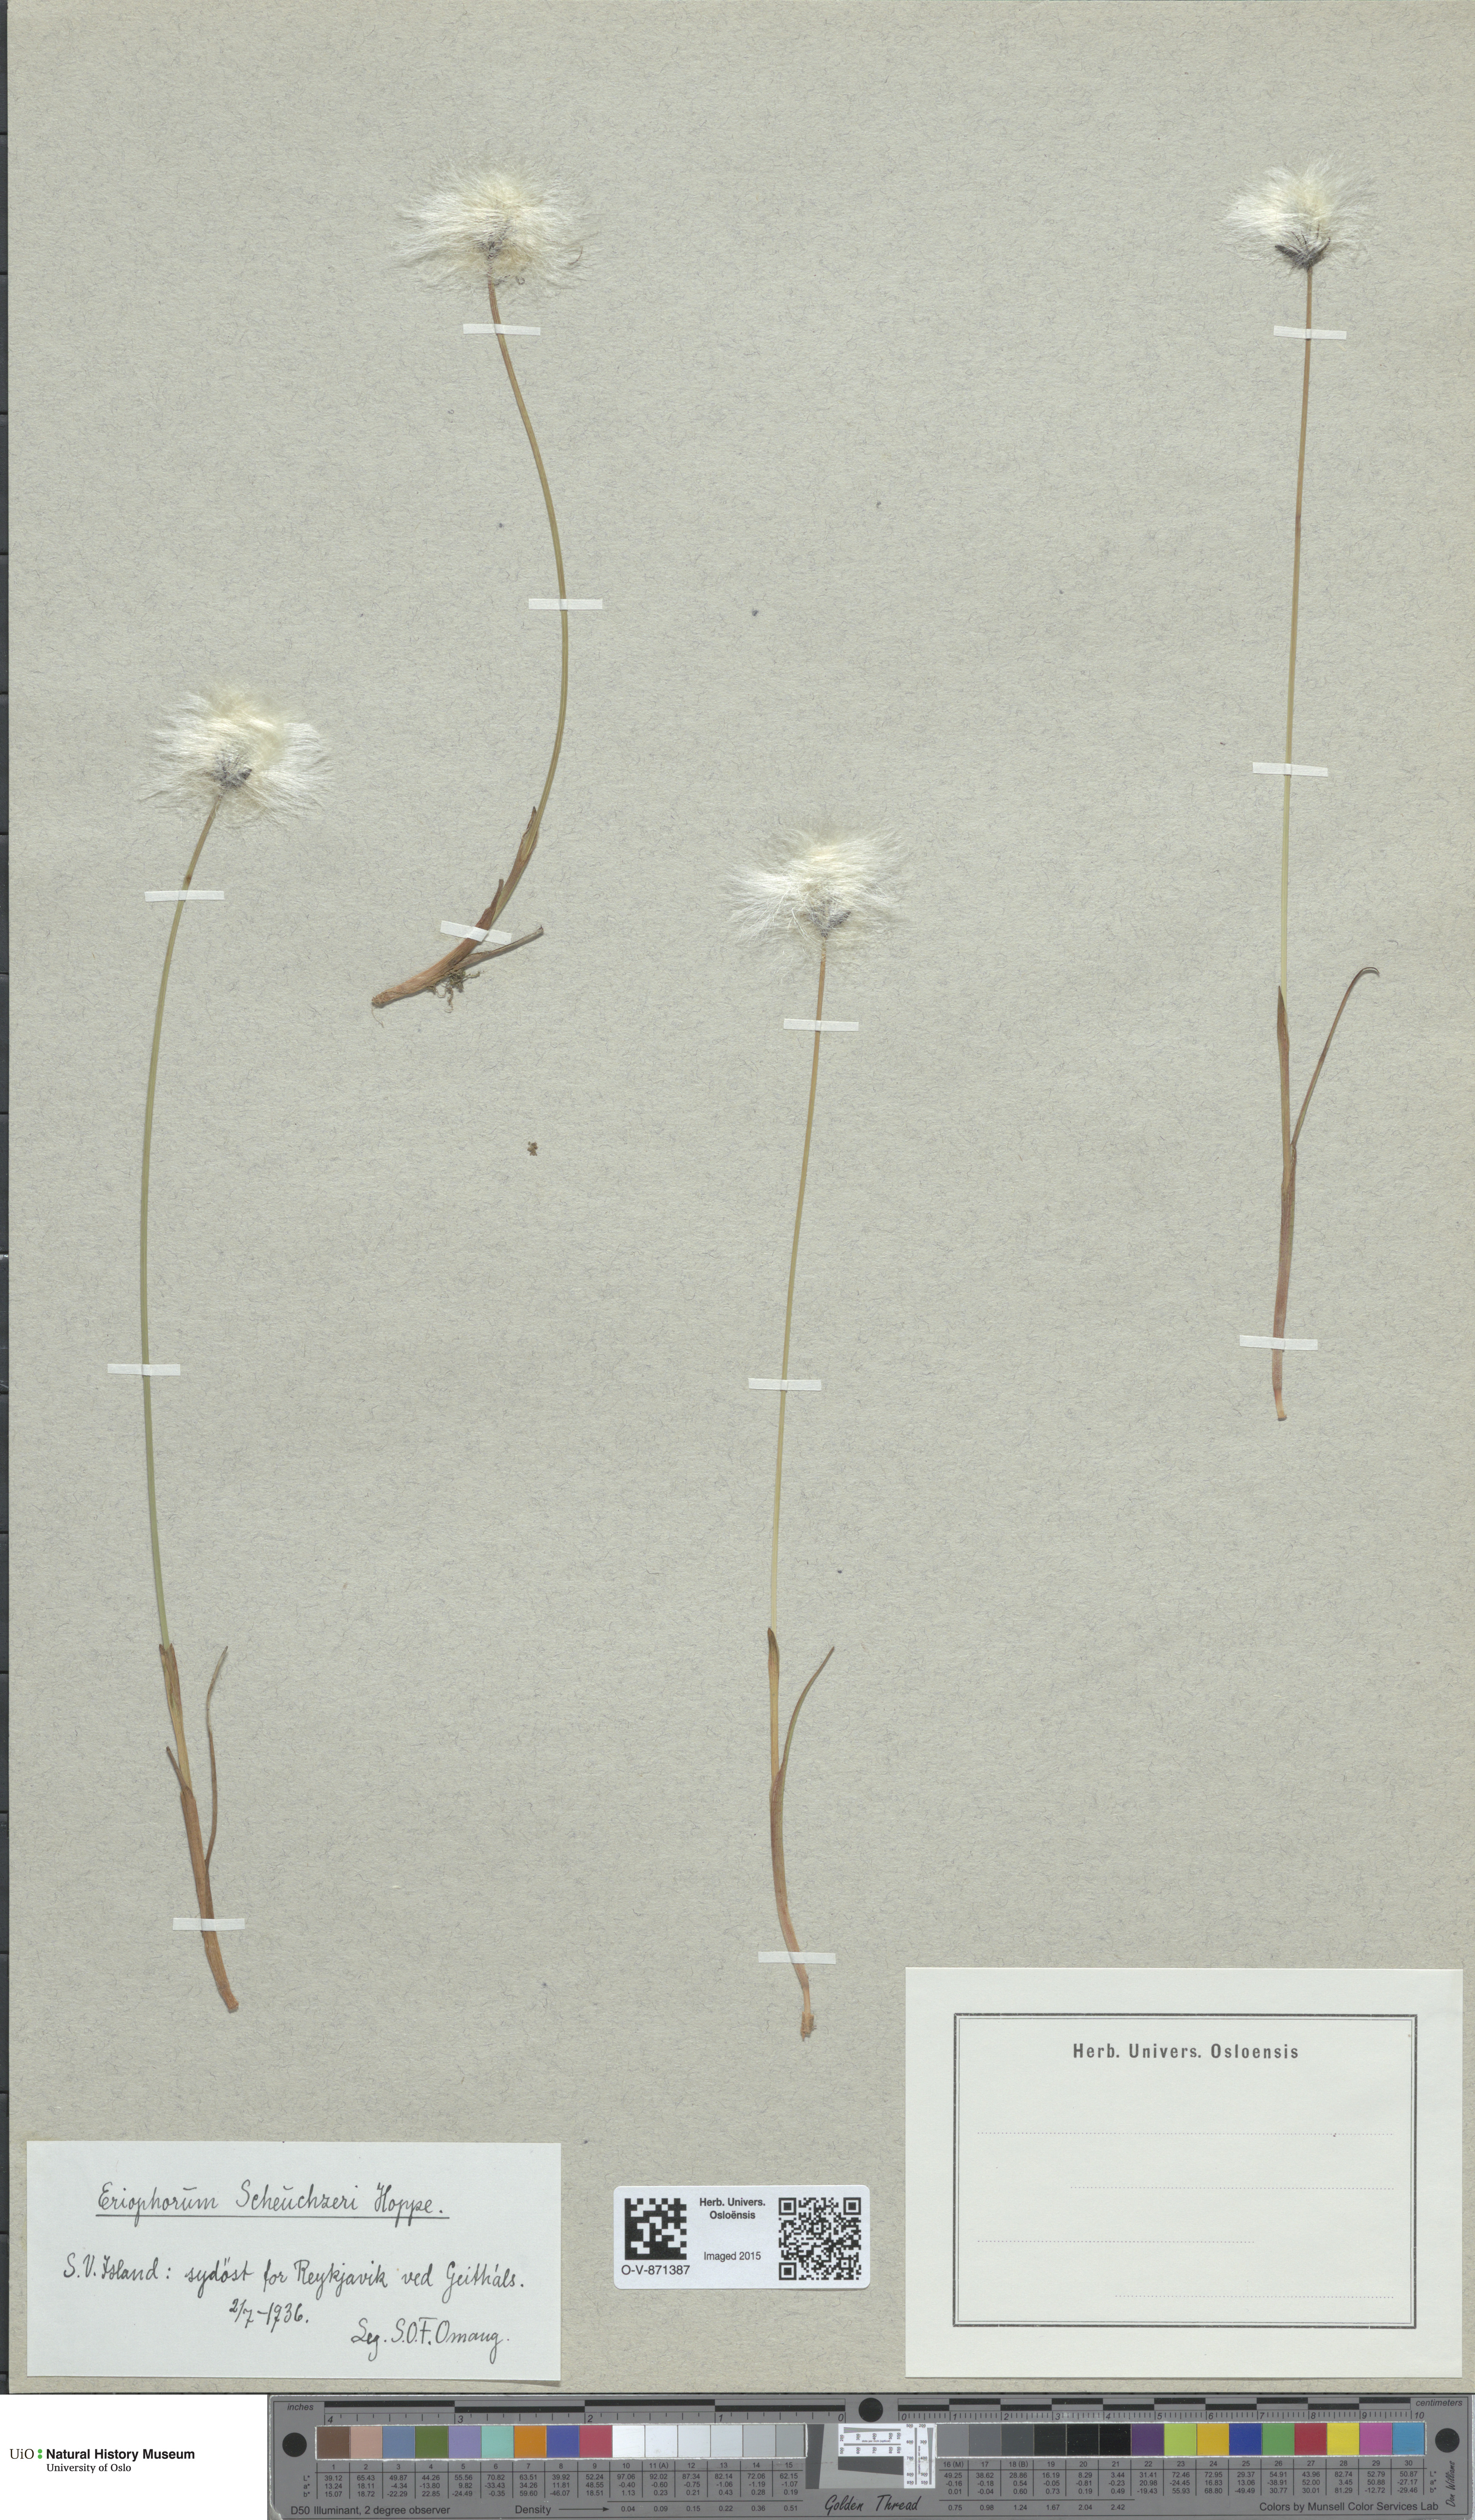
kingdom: Plantae
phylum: Tracheophyta
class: Liliopsida
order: Poales
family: Cyperaceae
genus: Eriophorum
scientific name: Eriophorum scheuchzeri
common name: Scheuchzer's cottongrass
